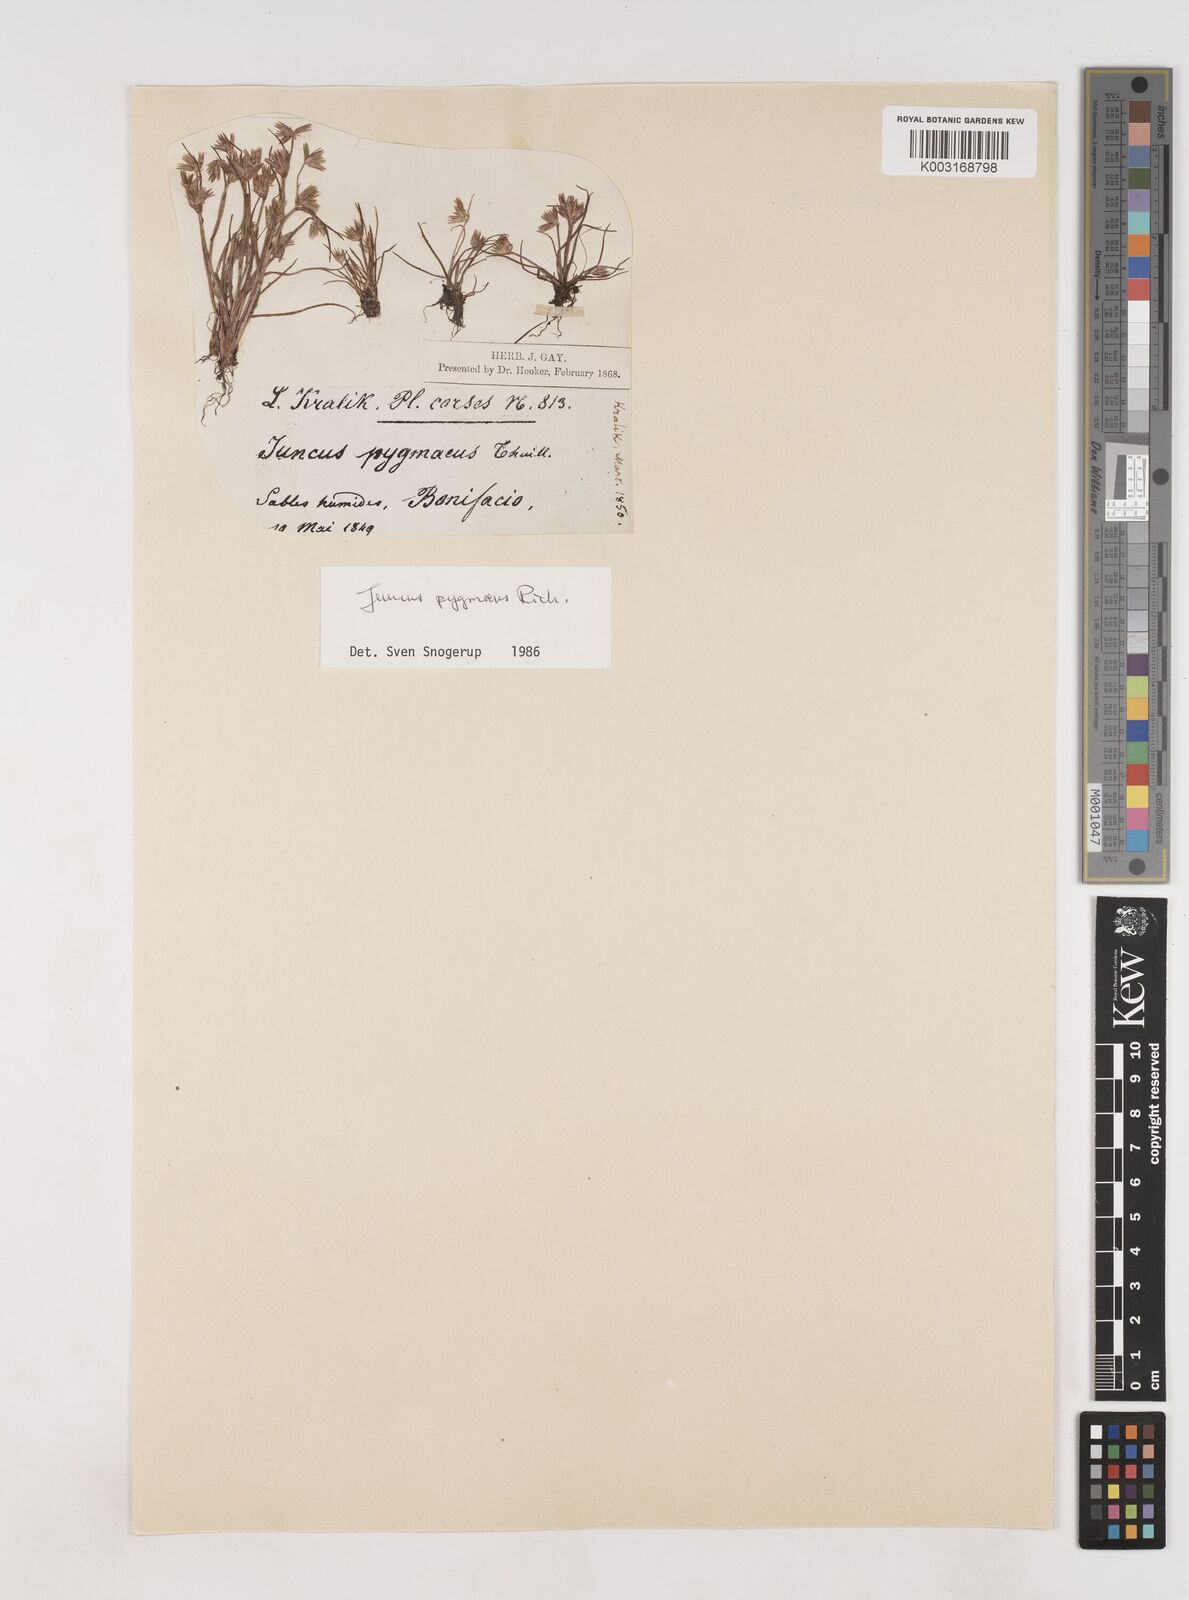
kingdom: Plantae
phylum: Tracheophyta
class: Liliopsida
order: Poales
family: Juncaceae
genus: Juncus
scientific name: Juncus pygmaeus
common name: Pigmy rush
